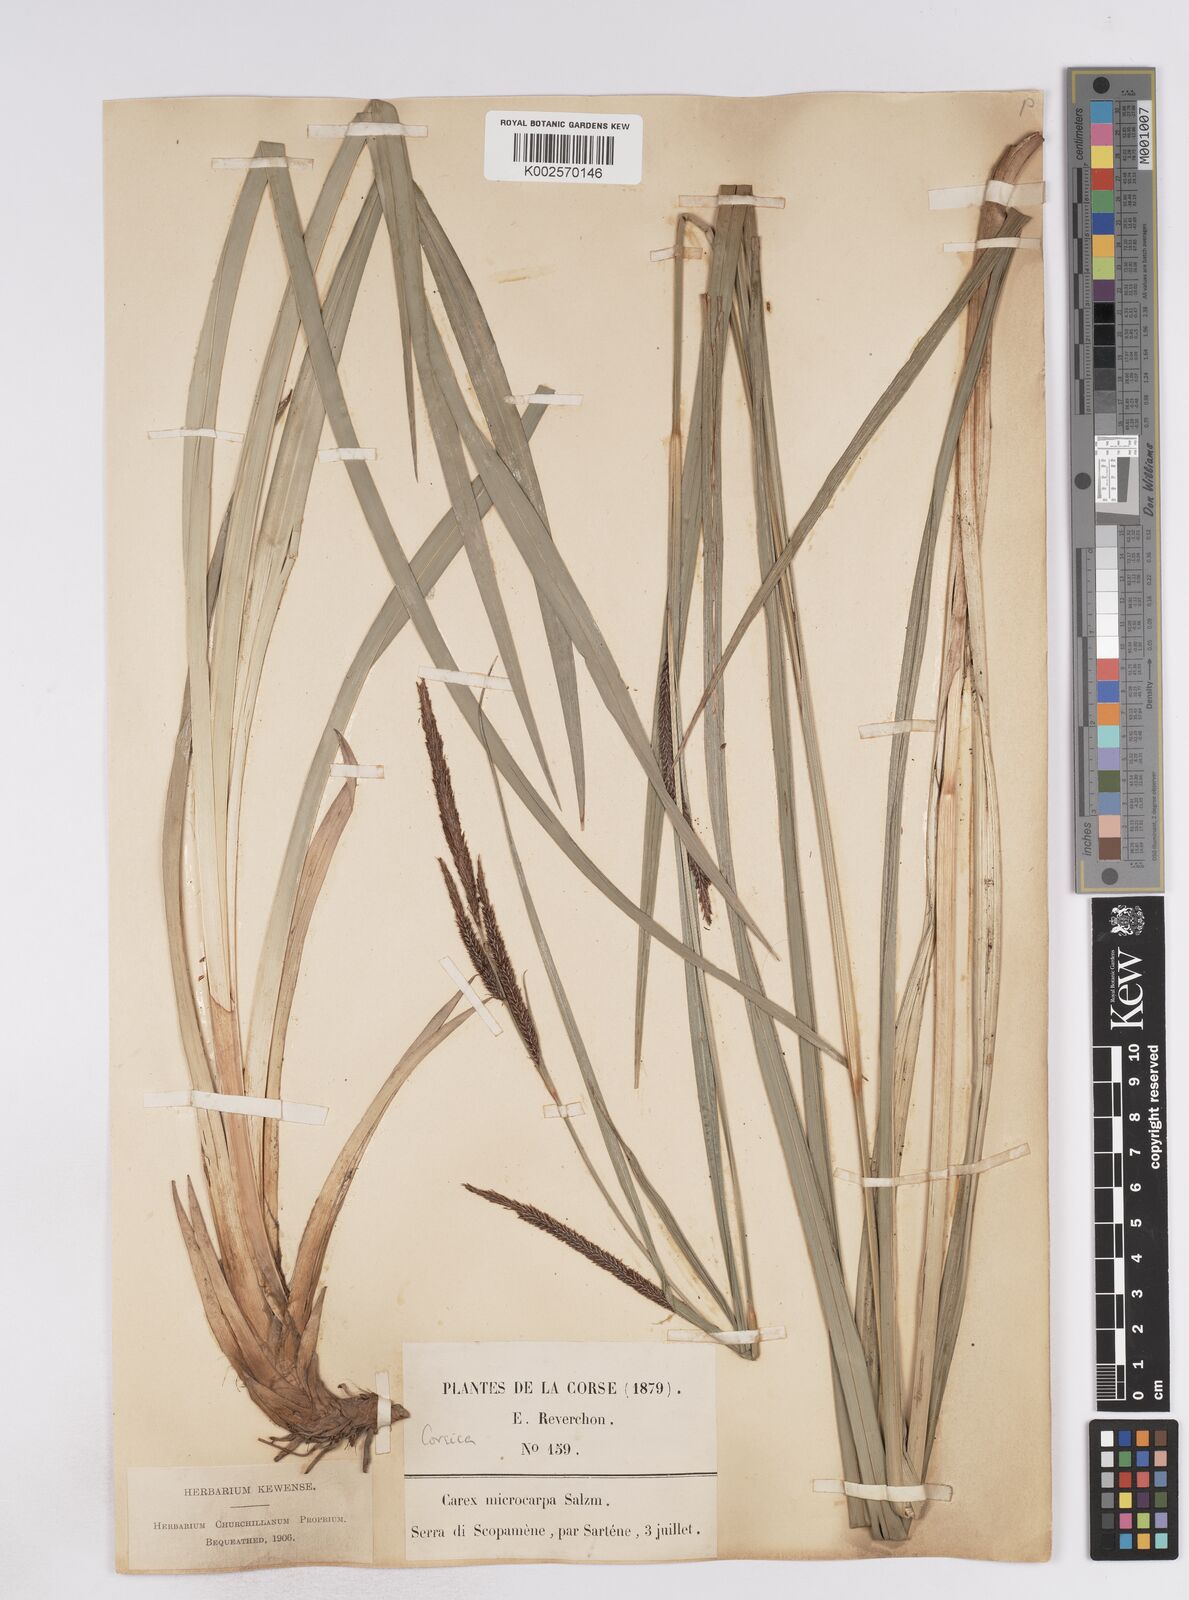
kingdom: Plantae
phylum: Tracheophyta
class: Liliopsida
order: Poales
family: Cyperaceae
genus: Carex
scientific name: Carex microcarpa
